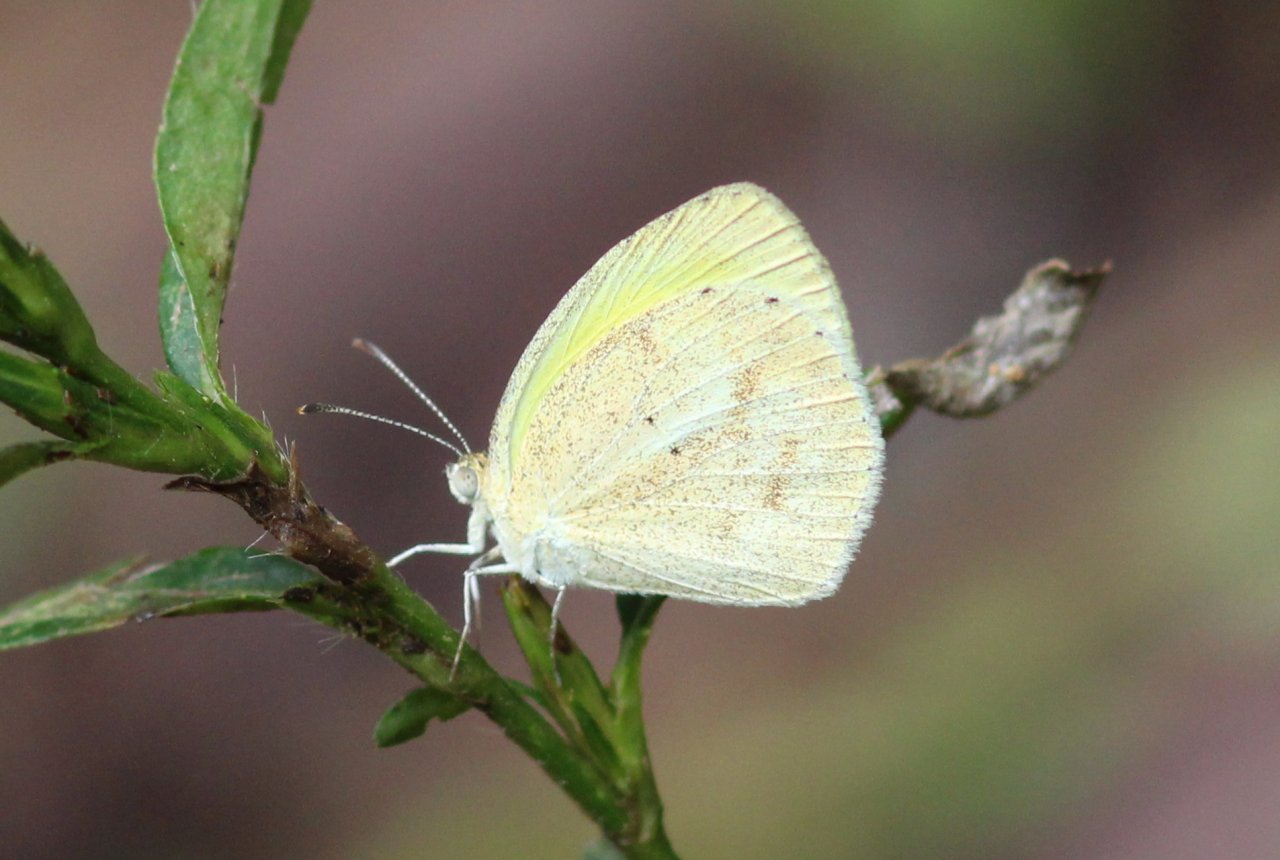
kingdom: Animalia
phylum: Arthropoda
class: Insecta
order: Lepidoptera
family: Pieridae
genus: Eurema
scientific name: Eurema daira
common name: Barred Yellow
